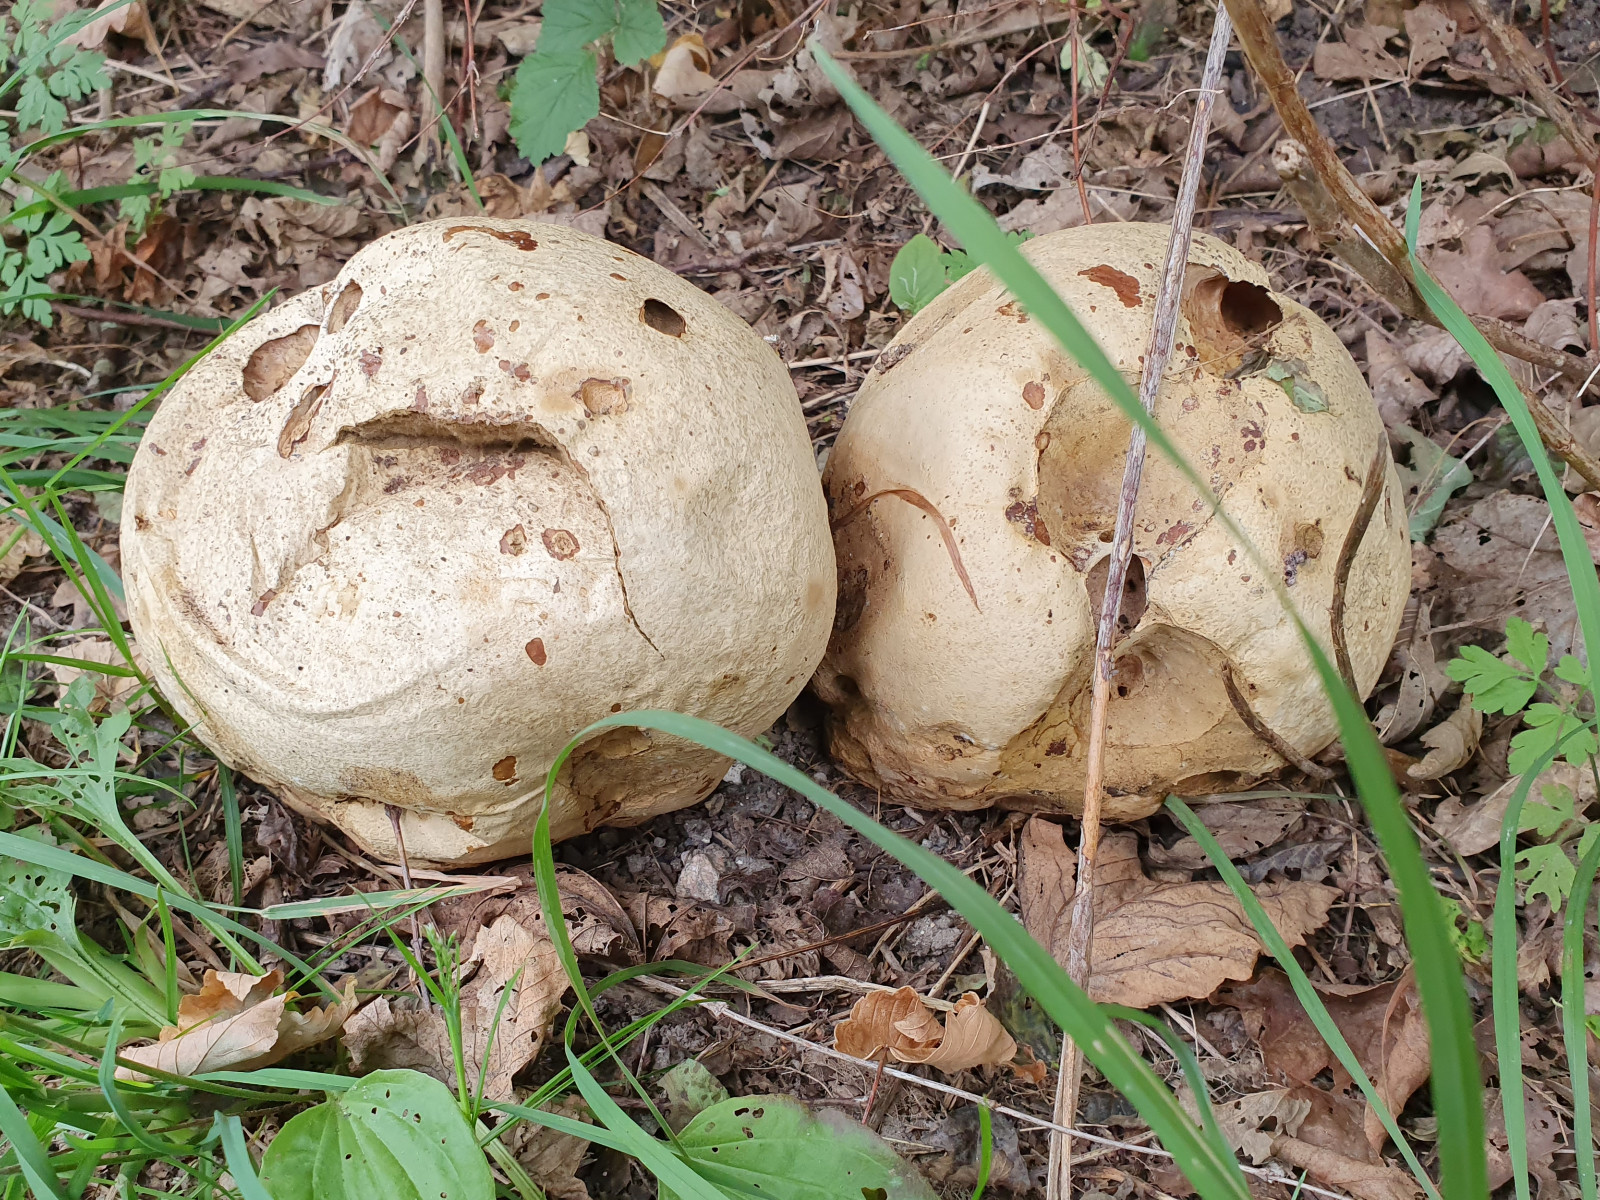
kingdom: Fungi
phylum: Basidiomycota
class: Agaricomycetes
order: Agaricales
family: Lycoperdaceae
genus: Calvatia
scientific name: Calvatia gigantea
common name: kæmpestøvbold
